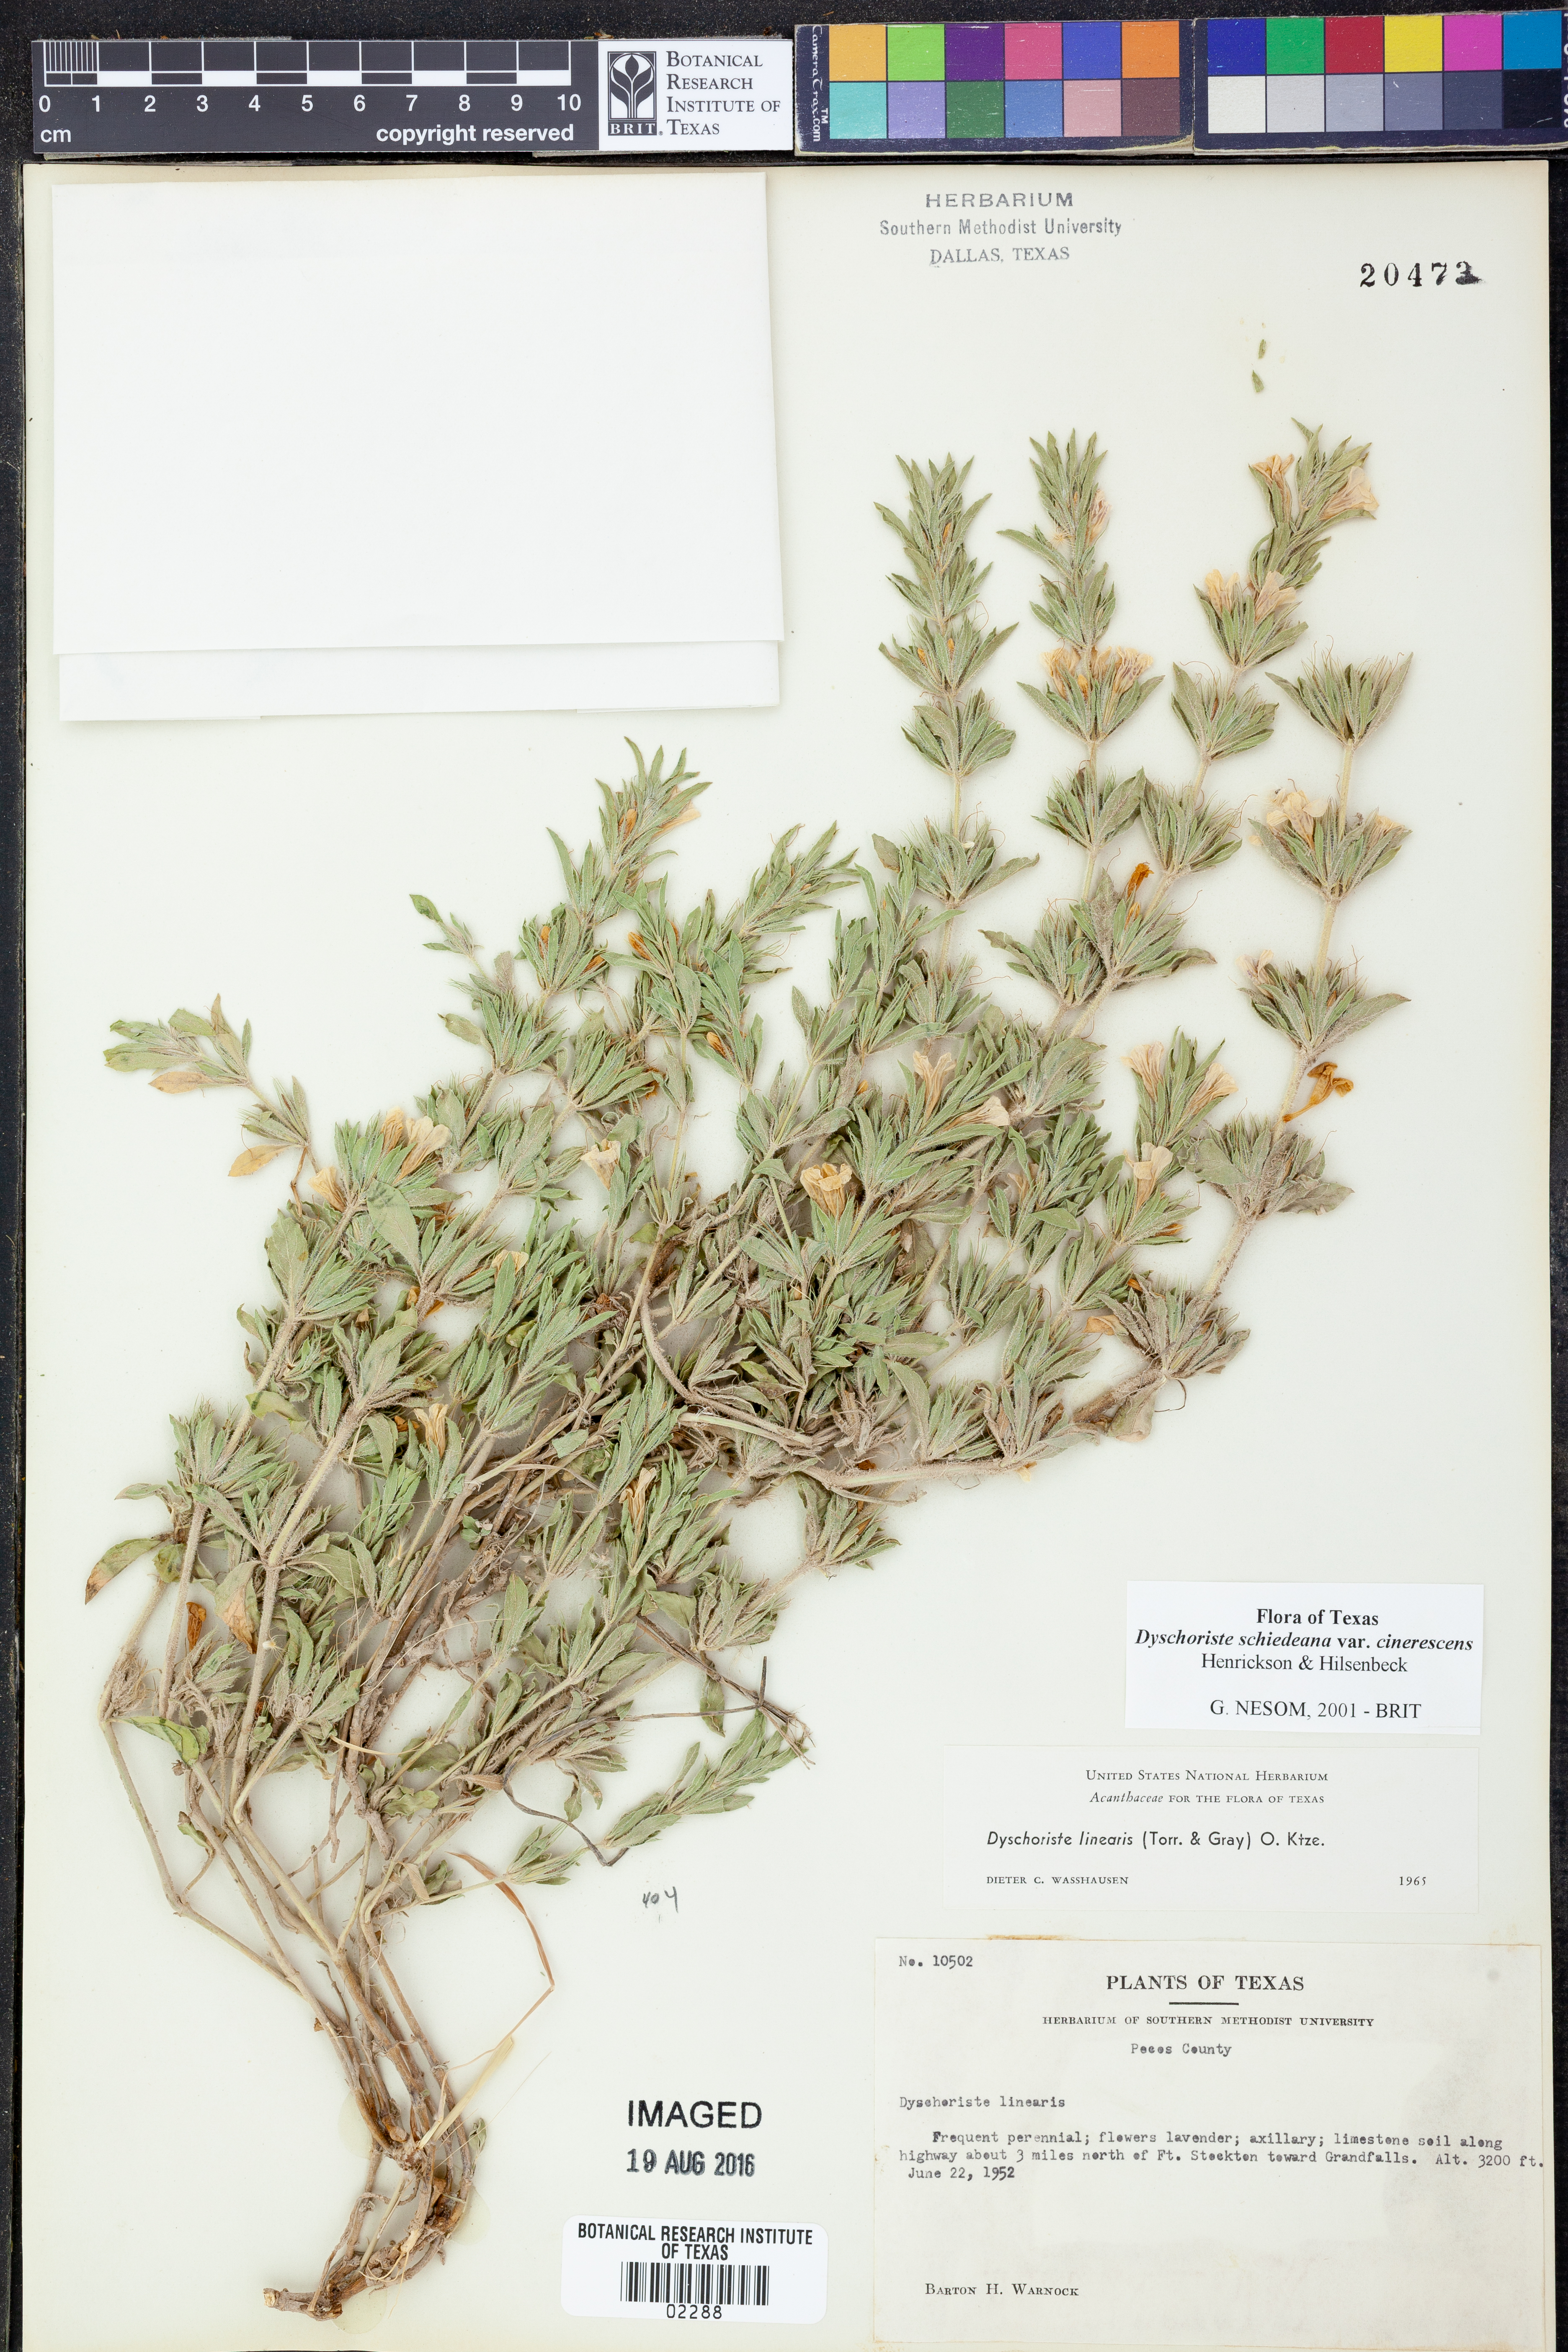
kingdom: Plantae
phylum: Tracheophyta
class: Magnoliopsida
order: Lamiales
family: Acanthaceae
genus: Dyschoriste
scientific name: Dyschoriste cinerascens
